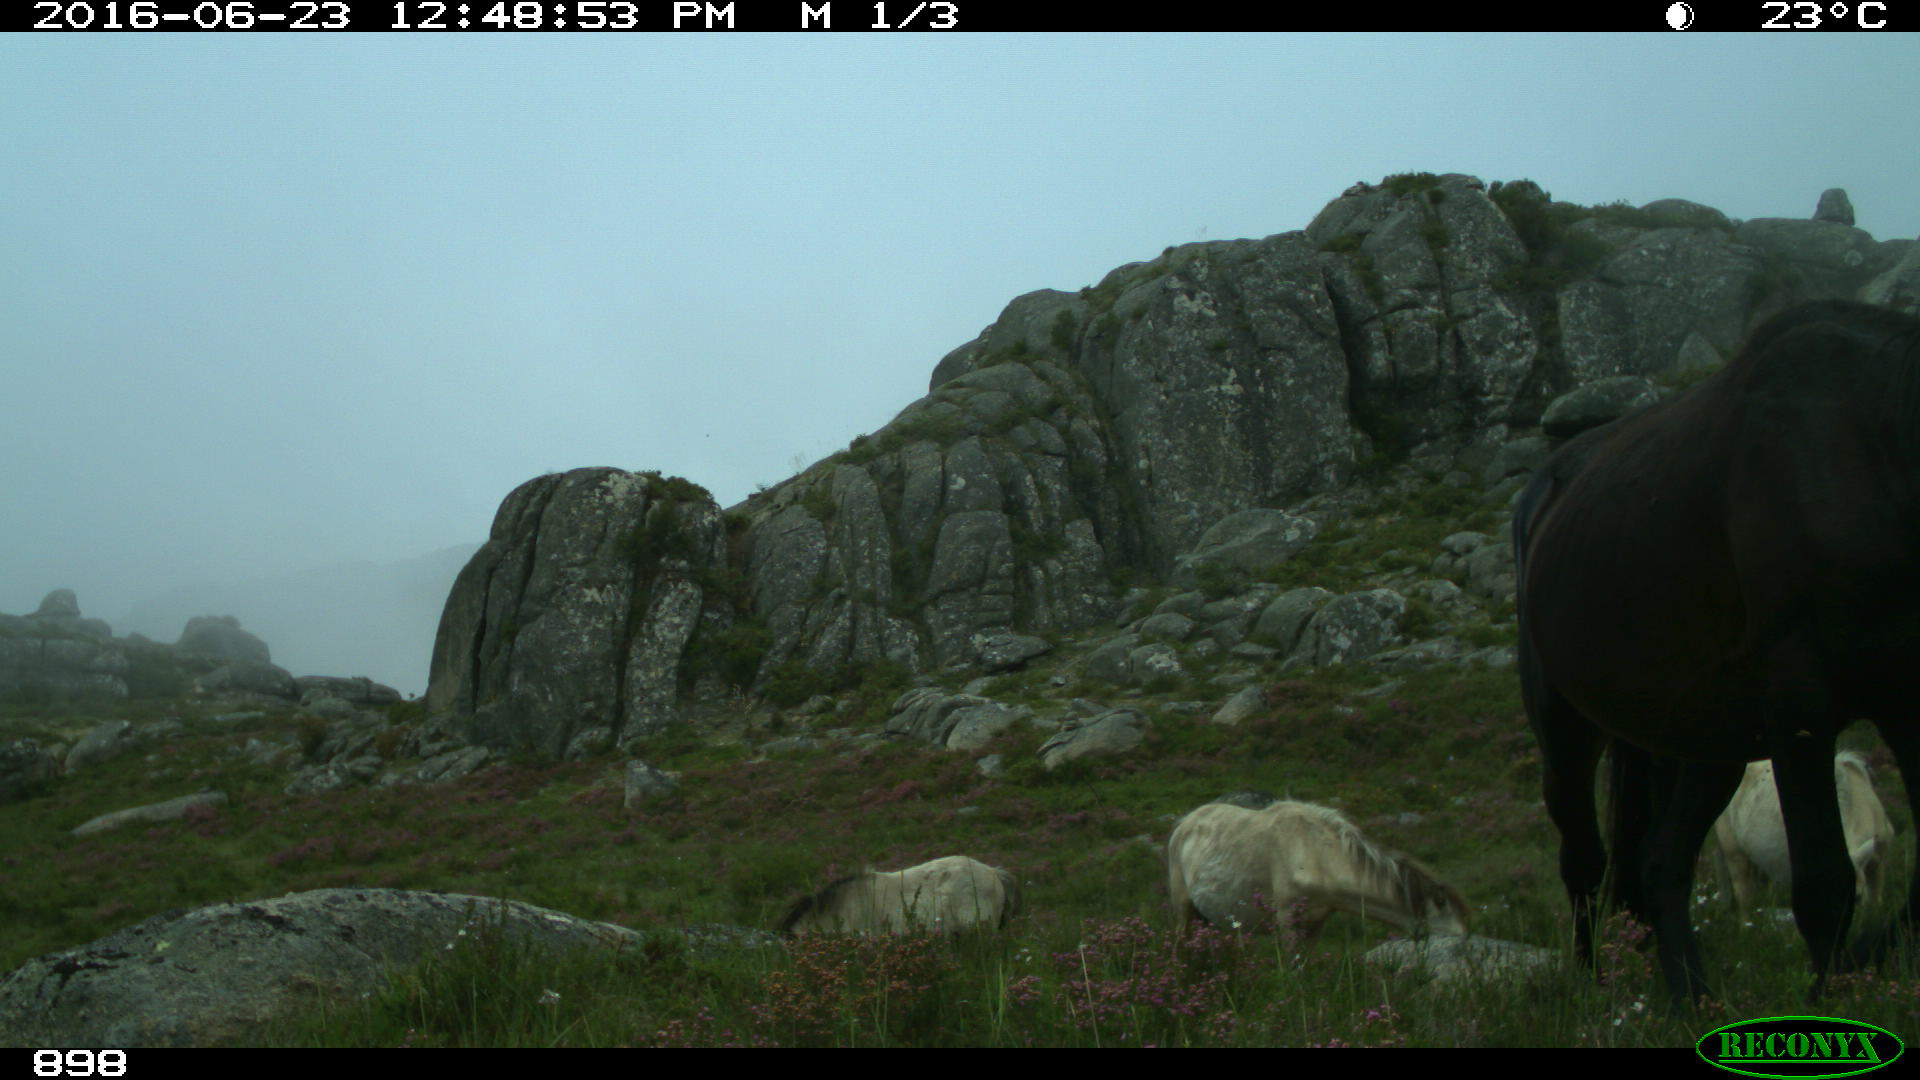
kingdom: Animalia
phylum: Chordata
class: Mammalia
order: Perissodactyla
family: Equidae
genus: Equus
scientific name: Equus caballus
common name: Horse
